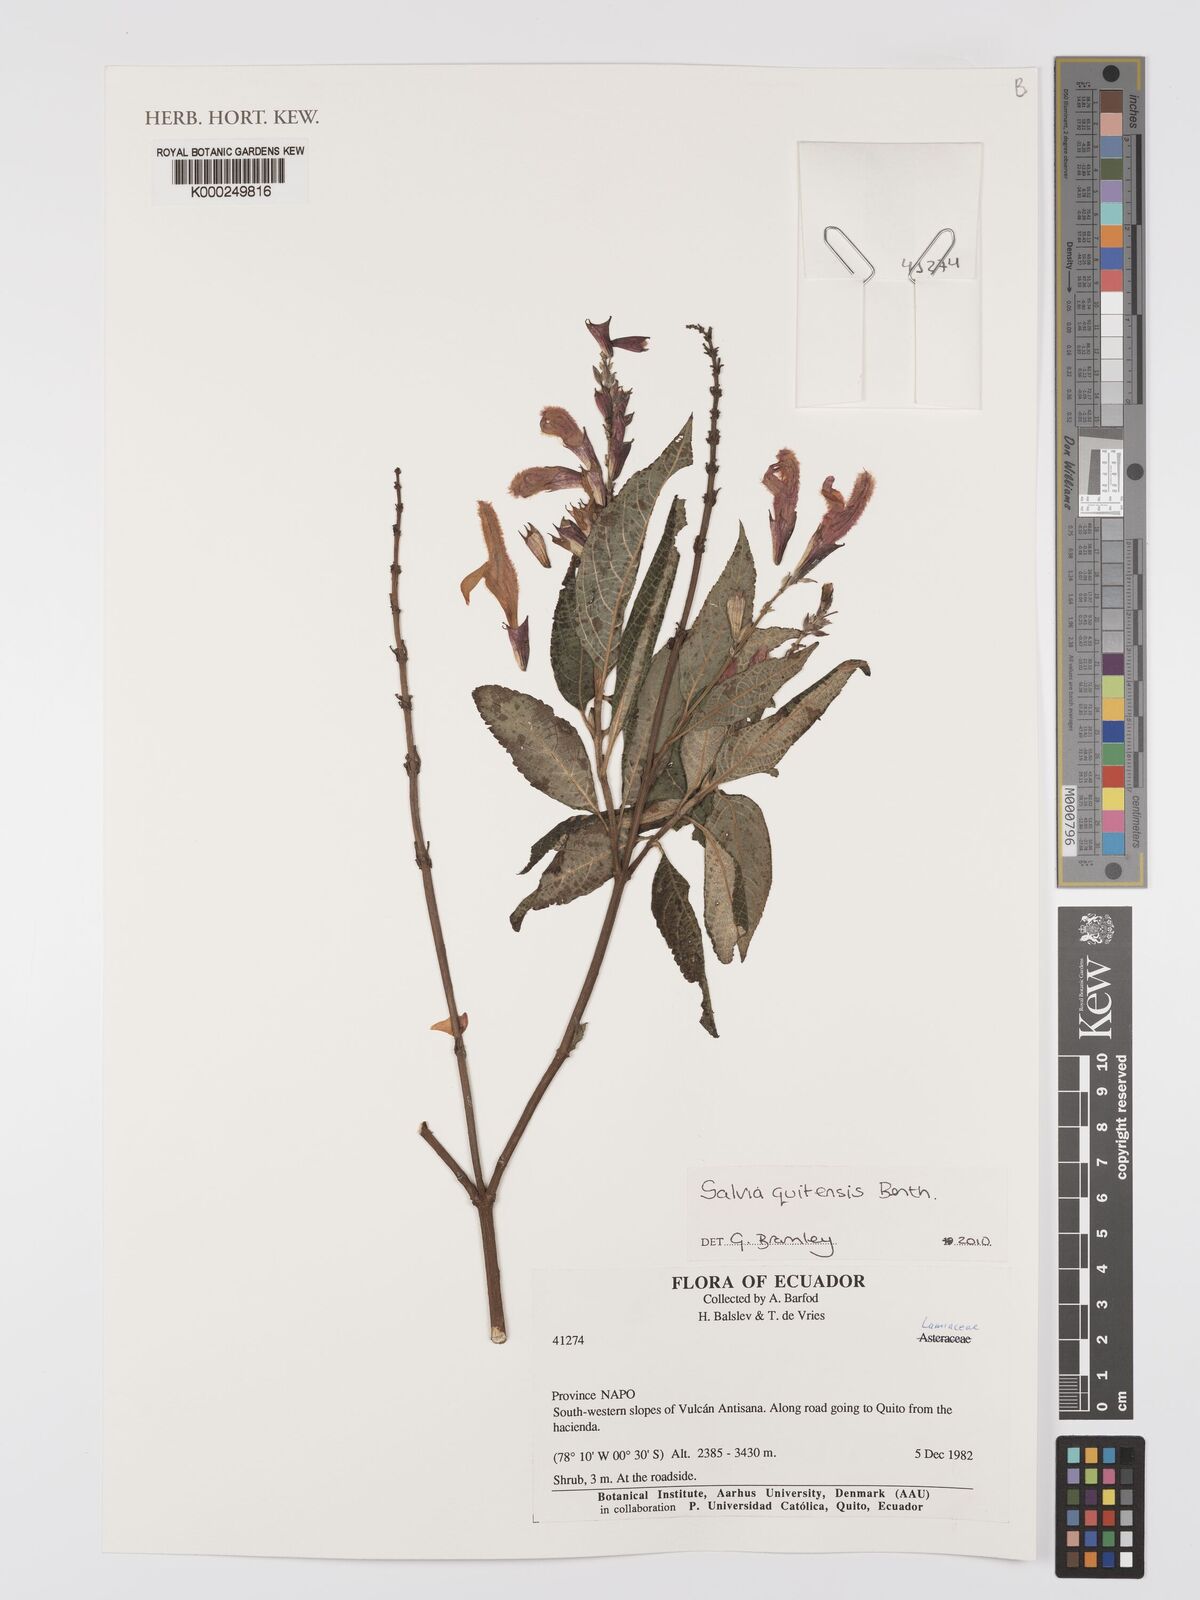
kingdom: Plantae
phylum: Tracheophyta
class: Magnoliopsida
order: Lamiales
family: Lamiaceae
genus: Salvia
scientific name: Salvia quitensis
